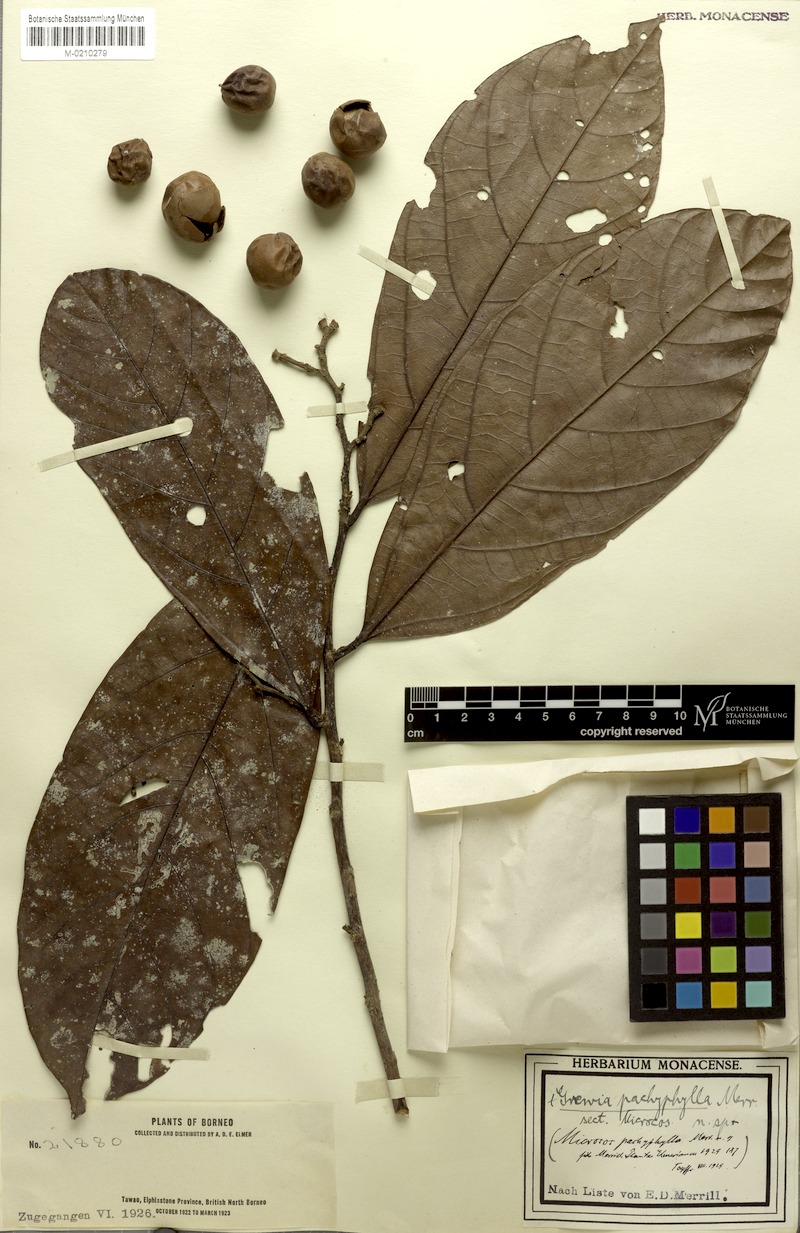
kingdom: Plantae
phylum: Tracheophyta
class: Magnoliopsida
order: Malvales
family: Malvaceae
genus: Microcos
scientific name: Microcos pachyphylla
